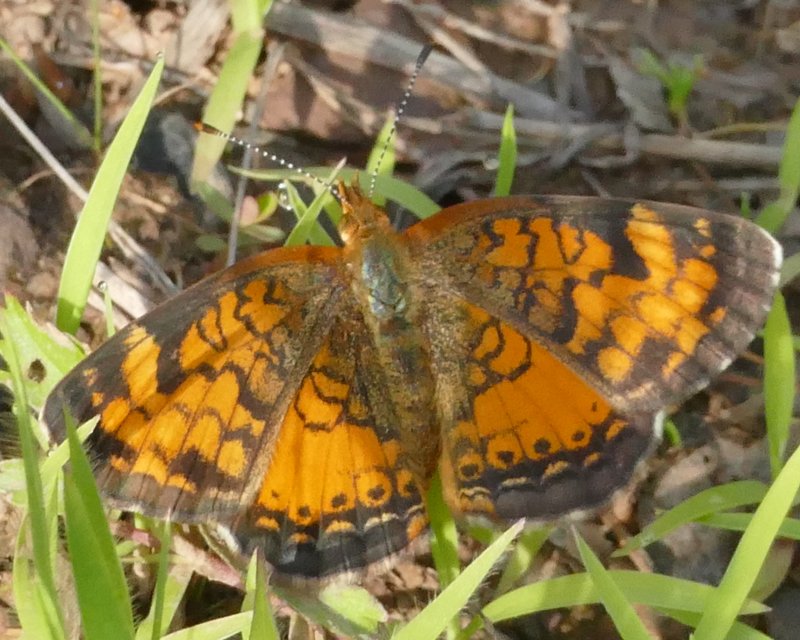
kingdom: Animalia
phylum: Arthropoda
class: Insecta
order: Lepidoptera
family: Nymphalidae
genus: Phyciodes
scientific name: Phyciodes tharos
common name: Northern Crescent
